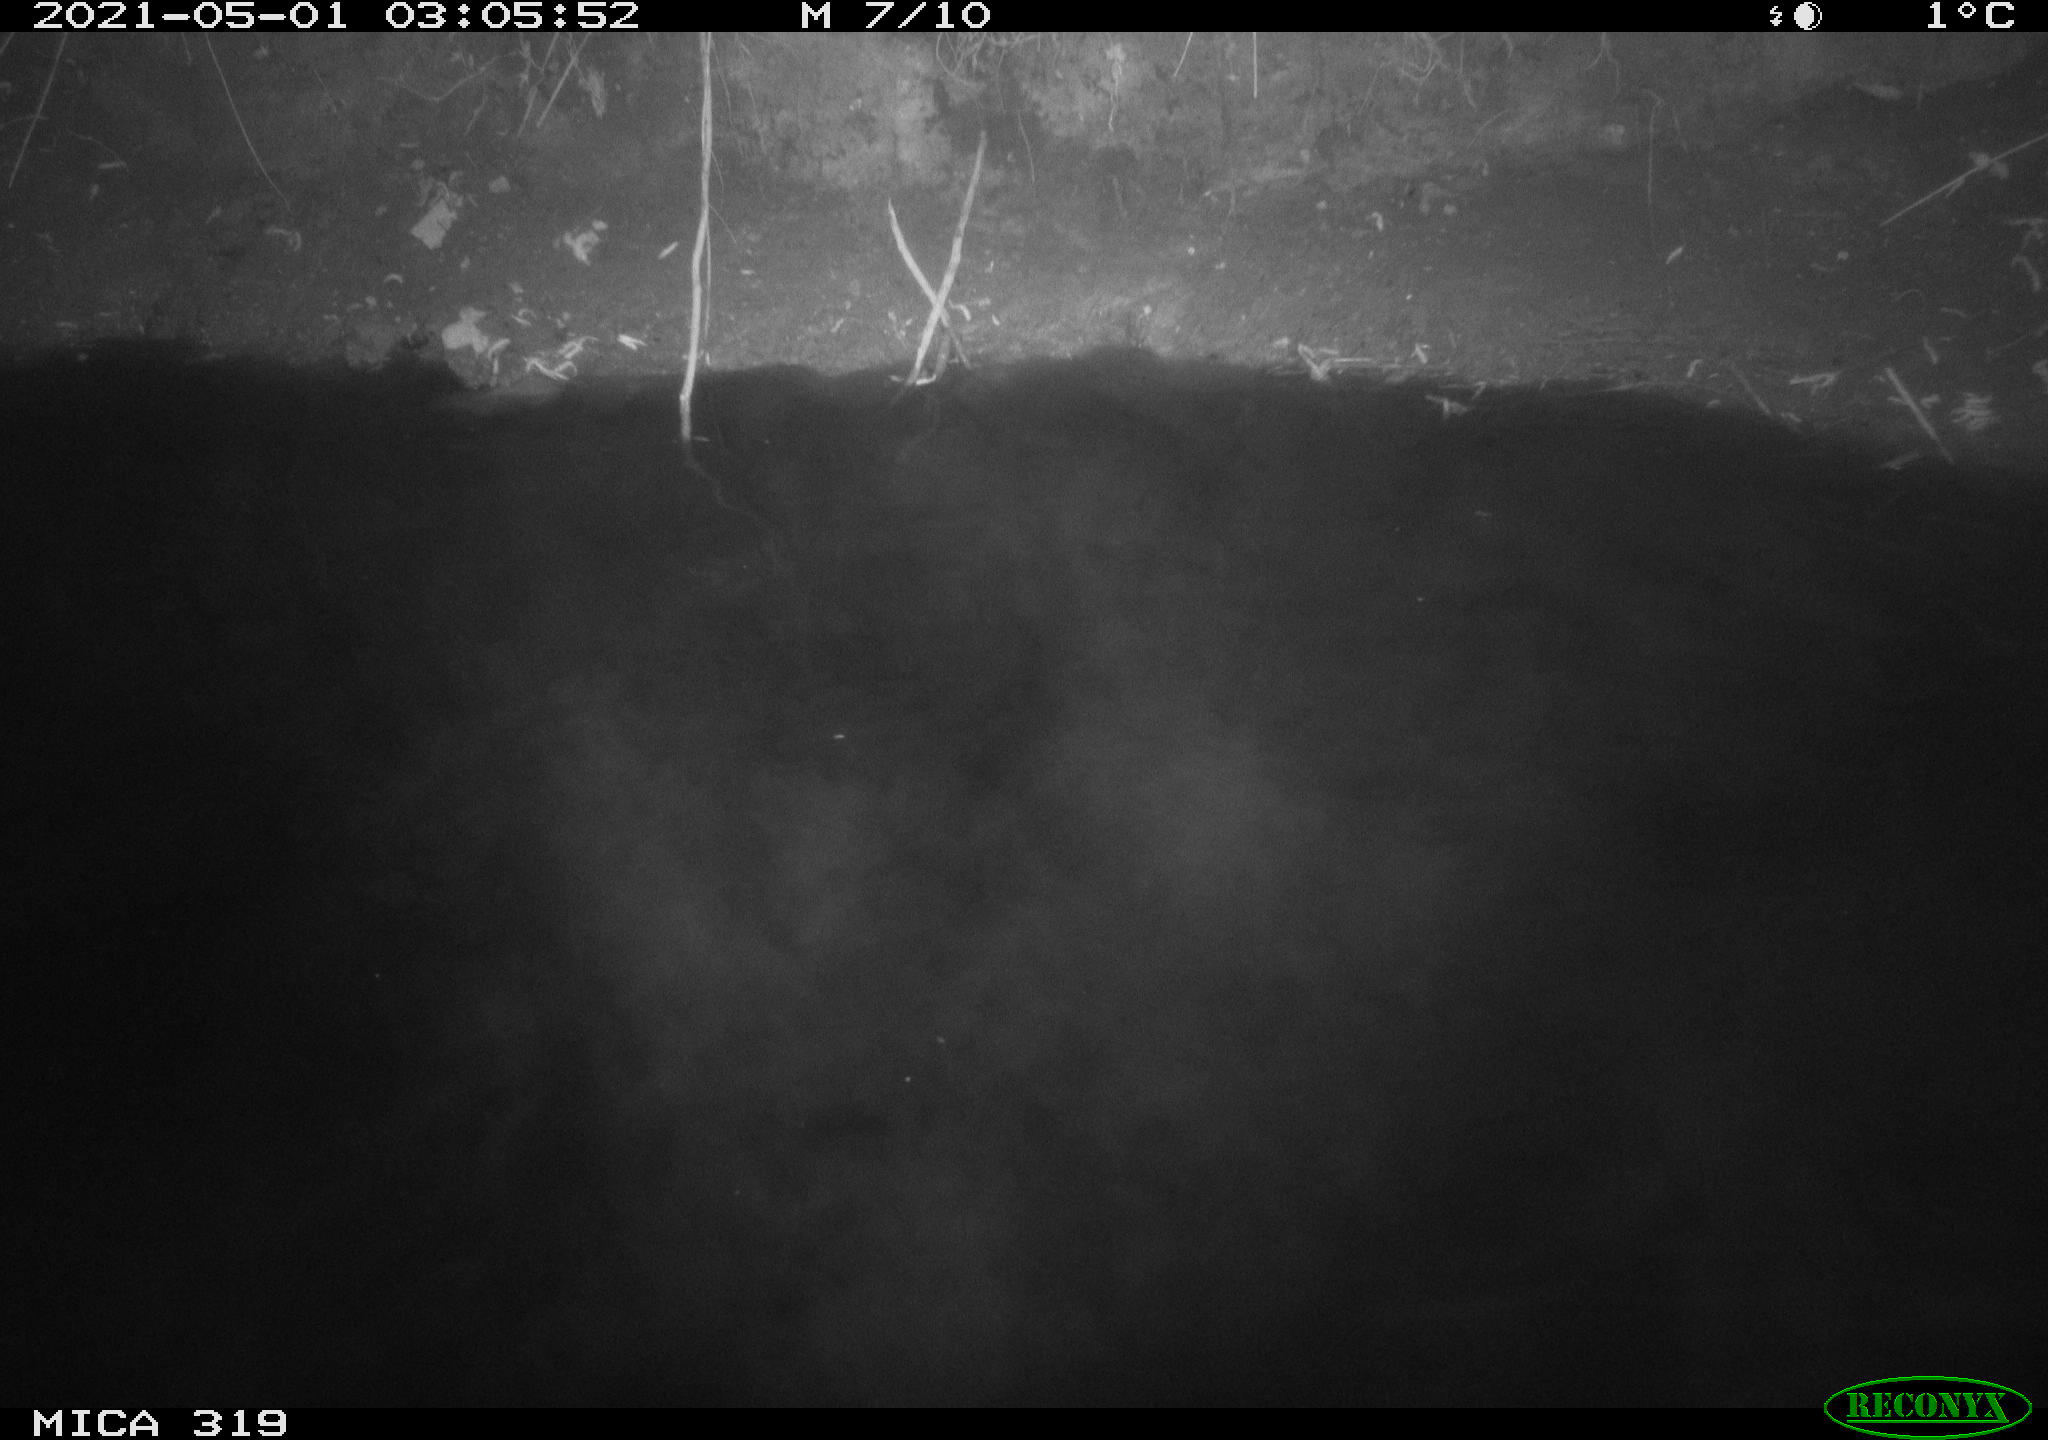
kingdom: Animalia
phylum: Chordata
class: Aves
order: Anseriformes
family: Anatidae
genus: Anas
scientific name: Anas platyrhynchos
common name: Mallard
